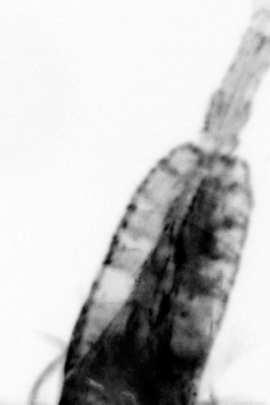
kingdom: Animalia
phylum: Arthropoda
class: Copepoda
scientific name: Copepoda
